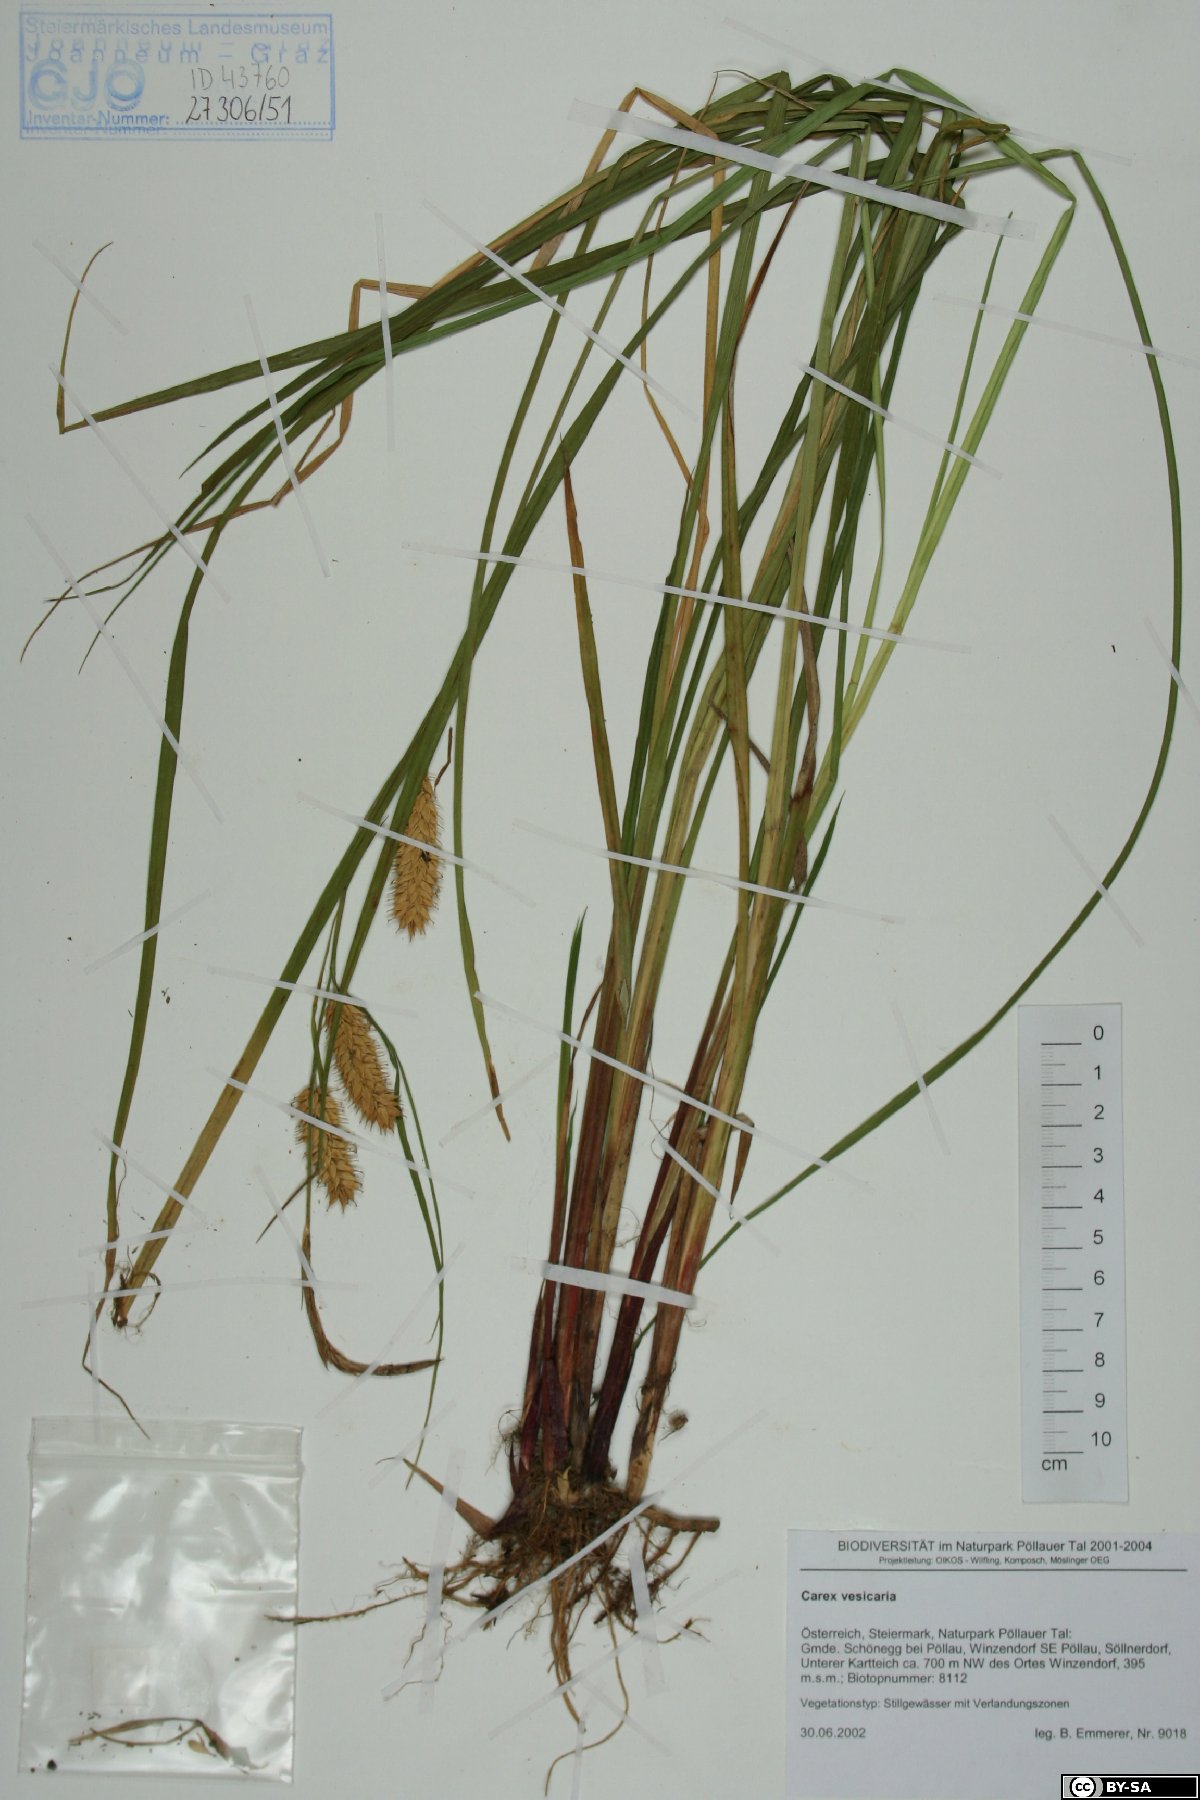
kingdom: Plantae
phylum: Tracheophyta
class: Liliopsida
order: Poales
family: Cyperaceae
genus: Carex
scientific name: Carex vesicaria
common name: Bladder-sedge
